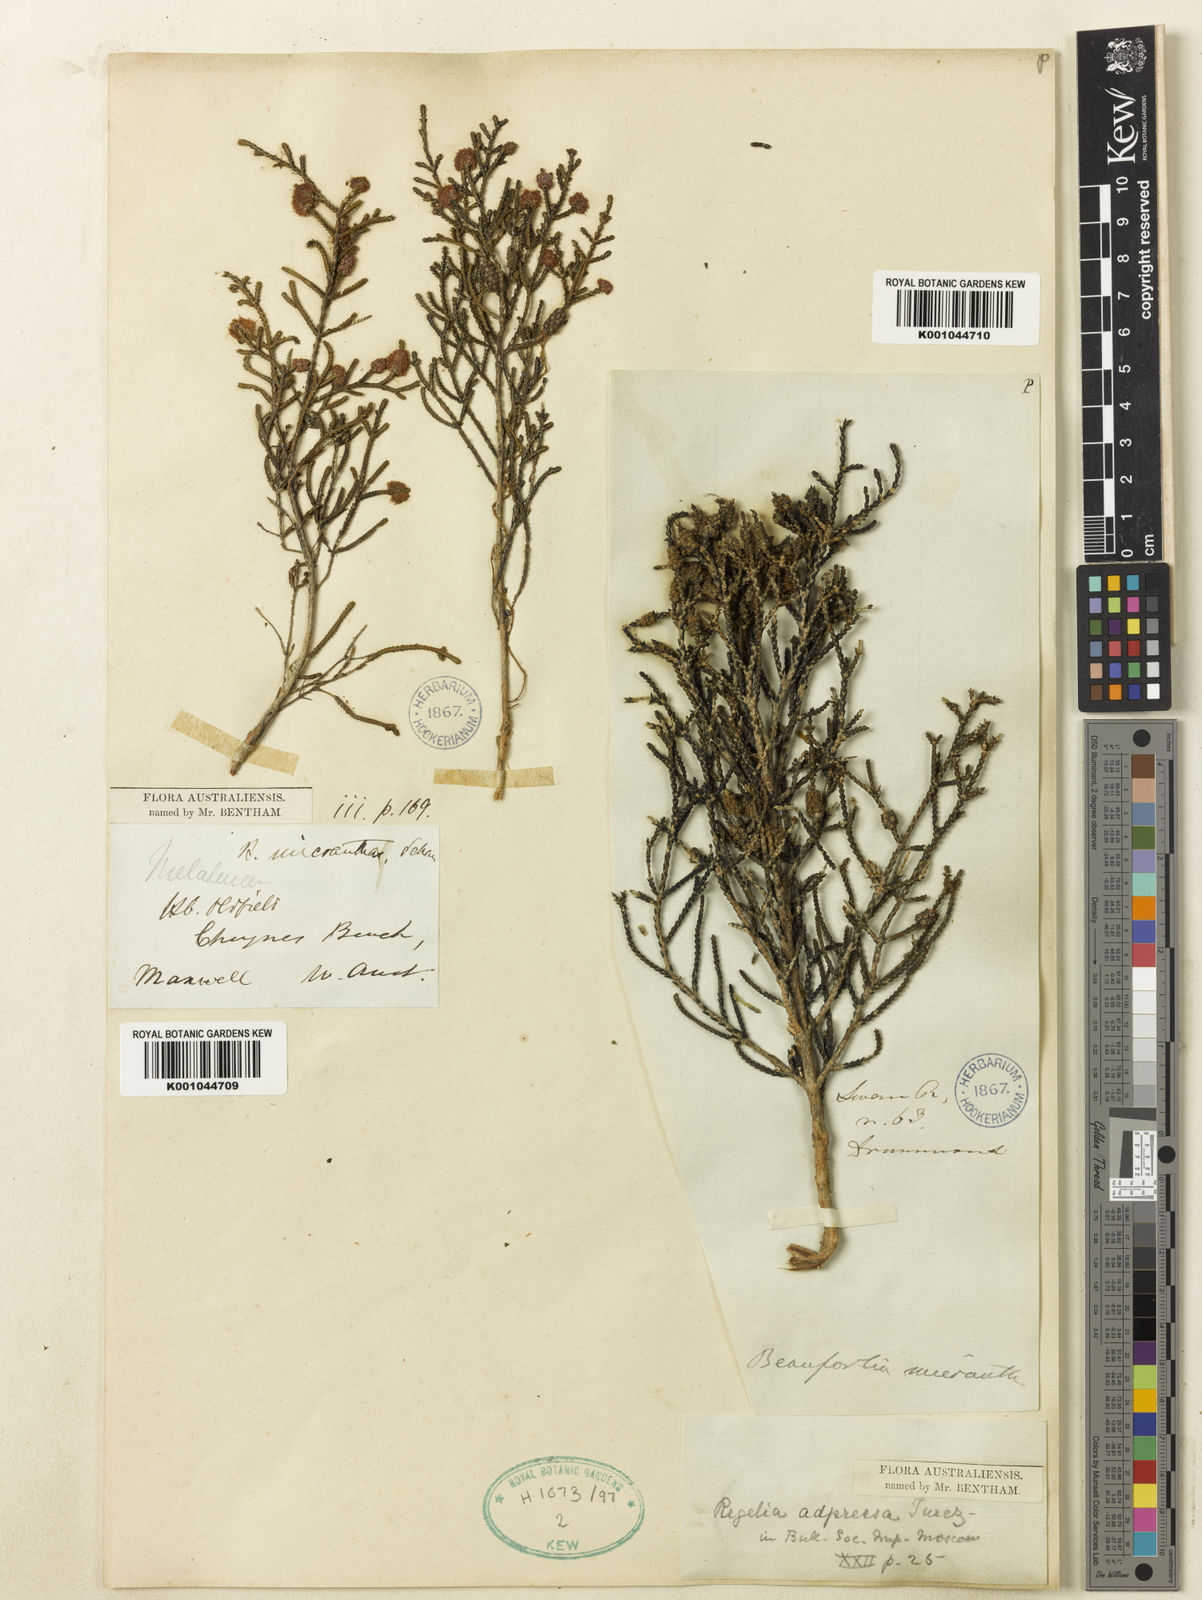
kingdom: Plantae
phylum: Tracheophyta
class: Magnoliopsida
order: Myrtales
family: Myrtaceae
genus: Melaleuca
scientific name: Melaleuca micrantha
